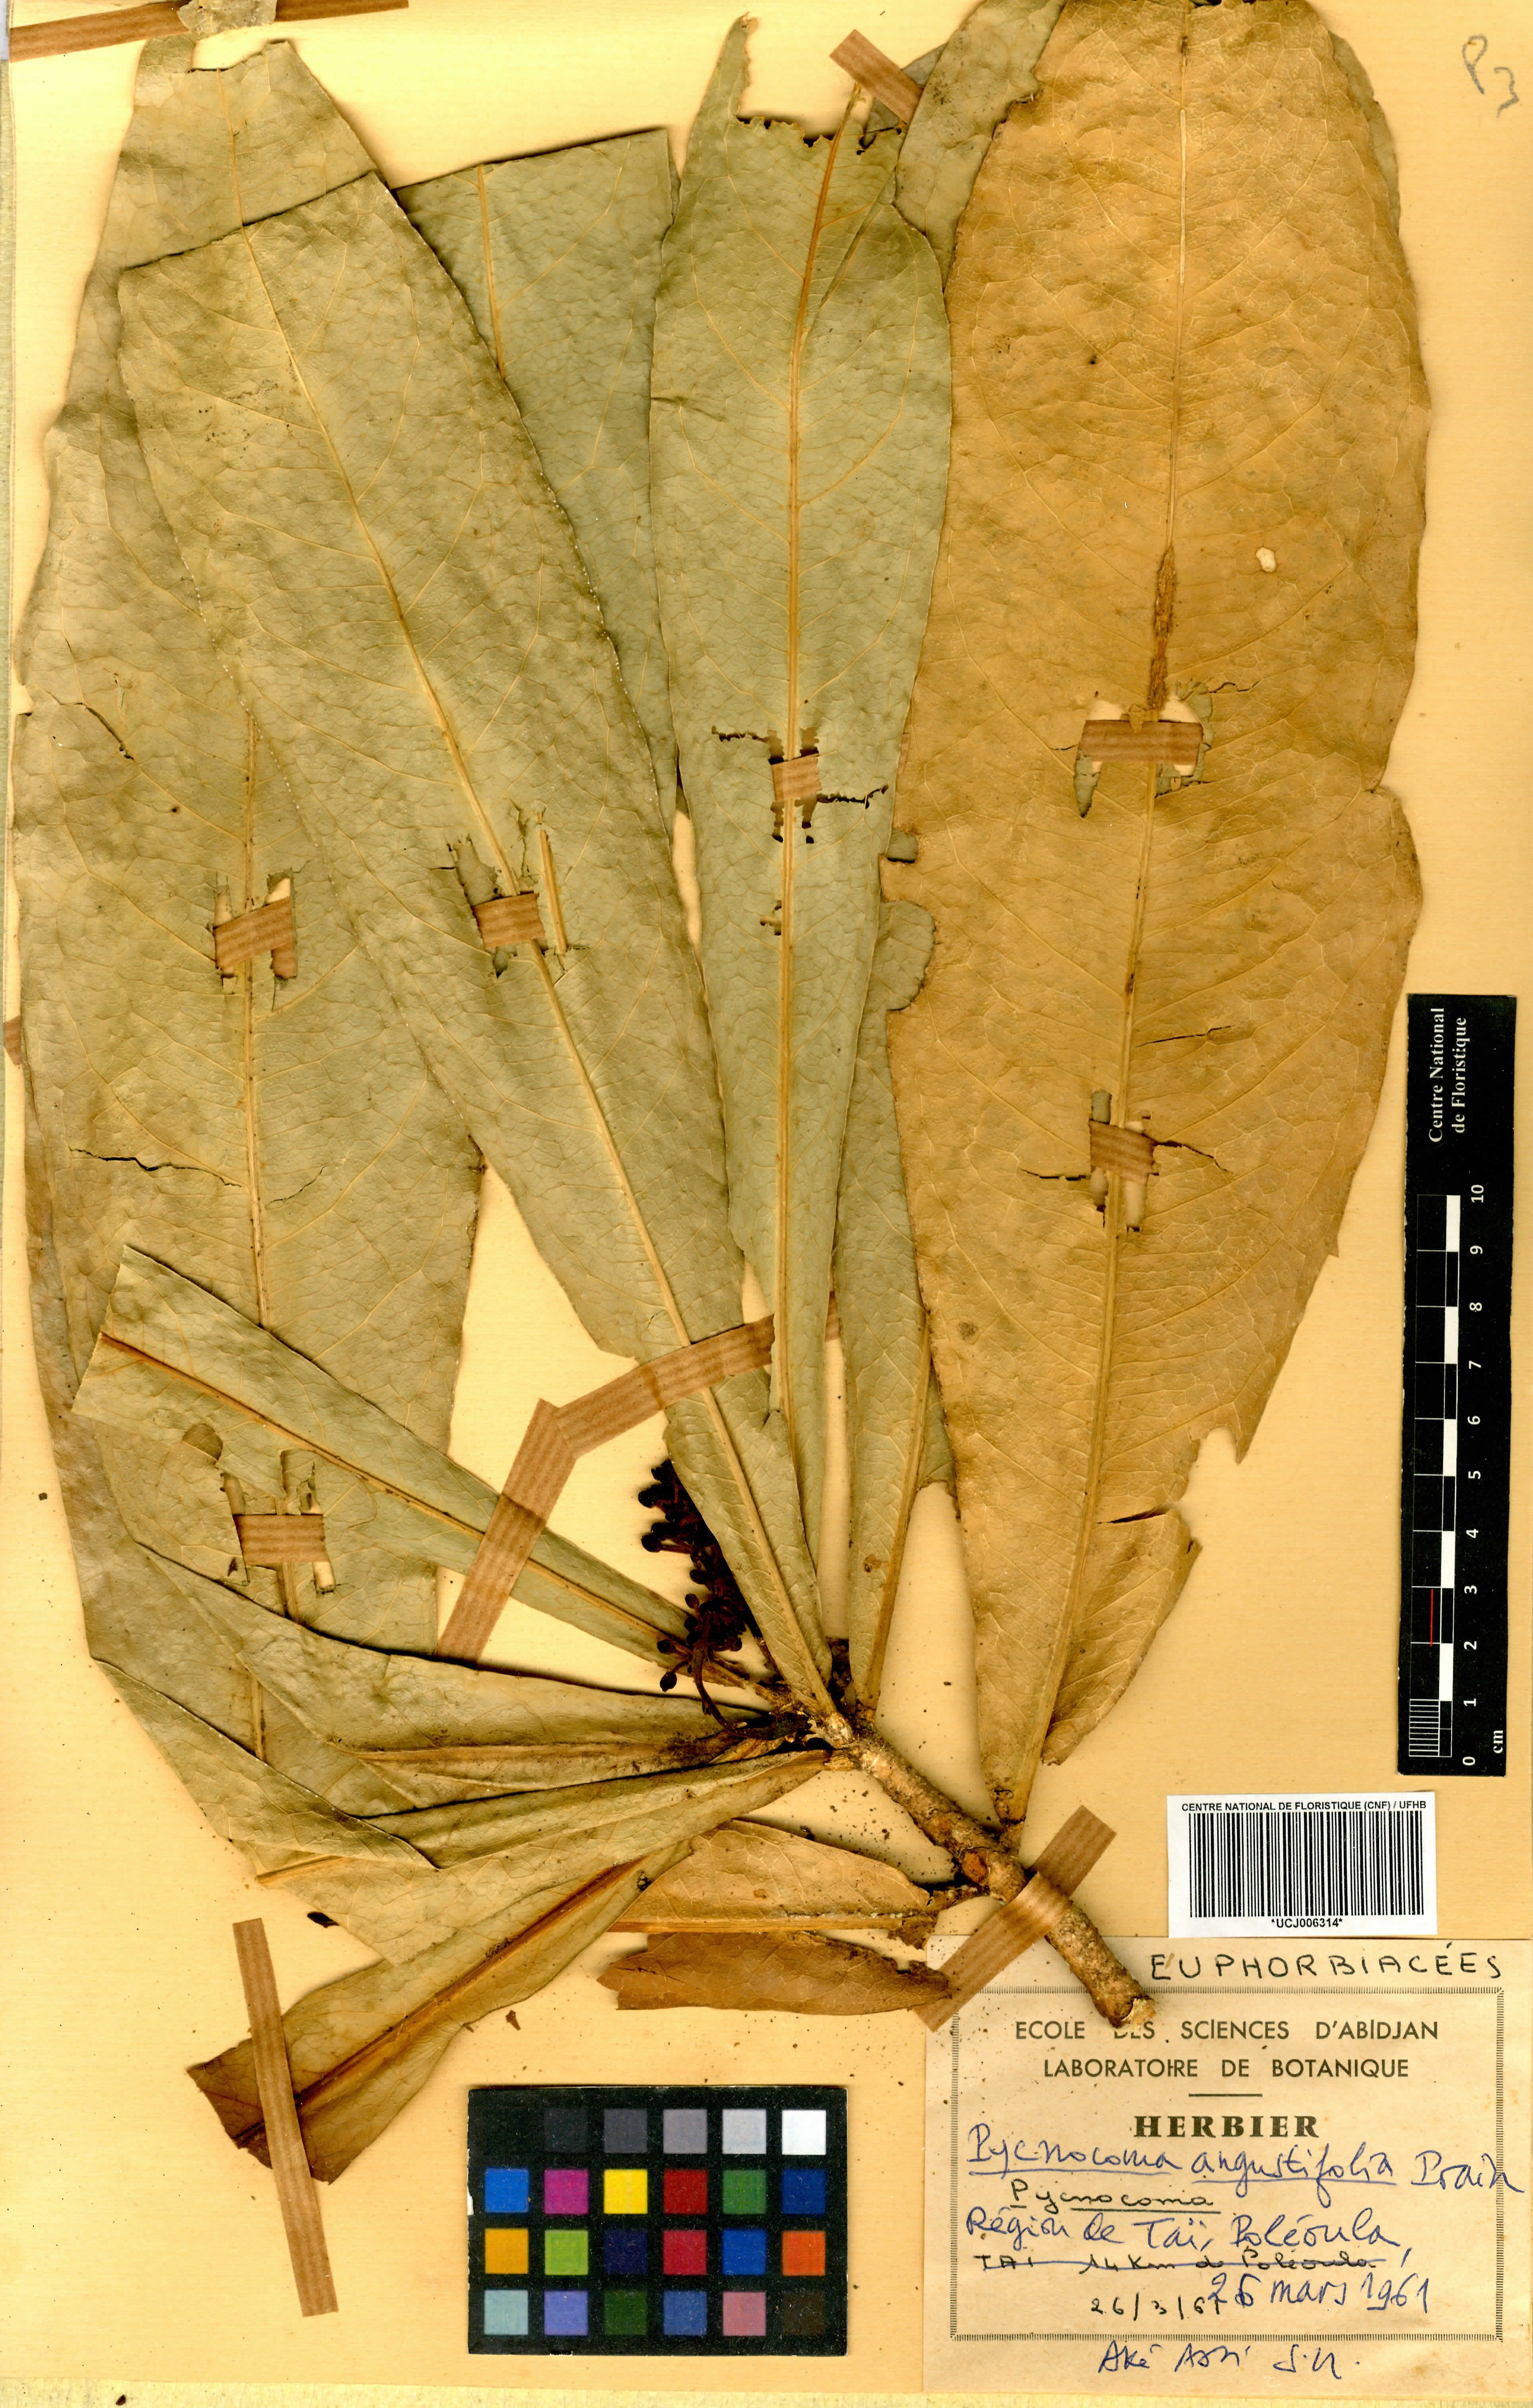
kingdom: Plantae
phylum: Tracheophyta
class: Magnoliopsida
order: Malpighiales
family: Euphorbiaceae
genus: Pycnocoma
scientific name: Pycnocoma angustifolia
